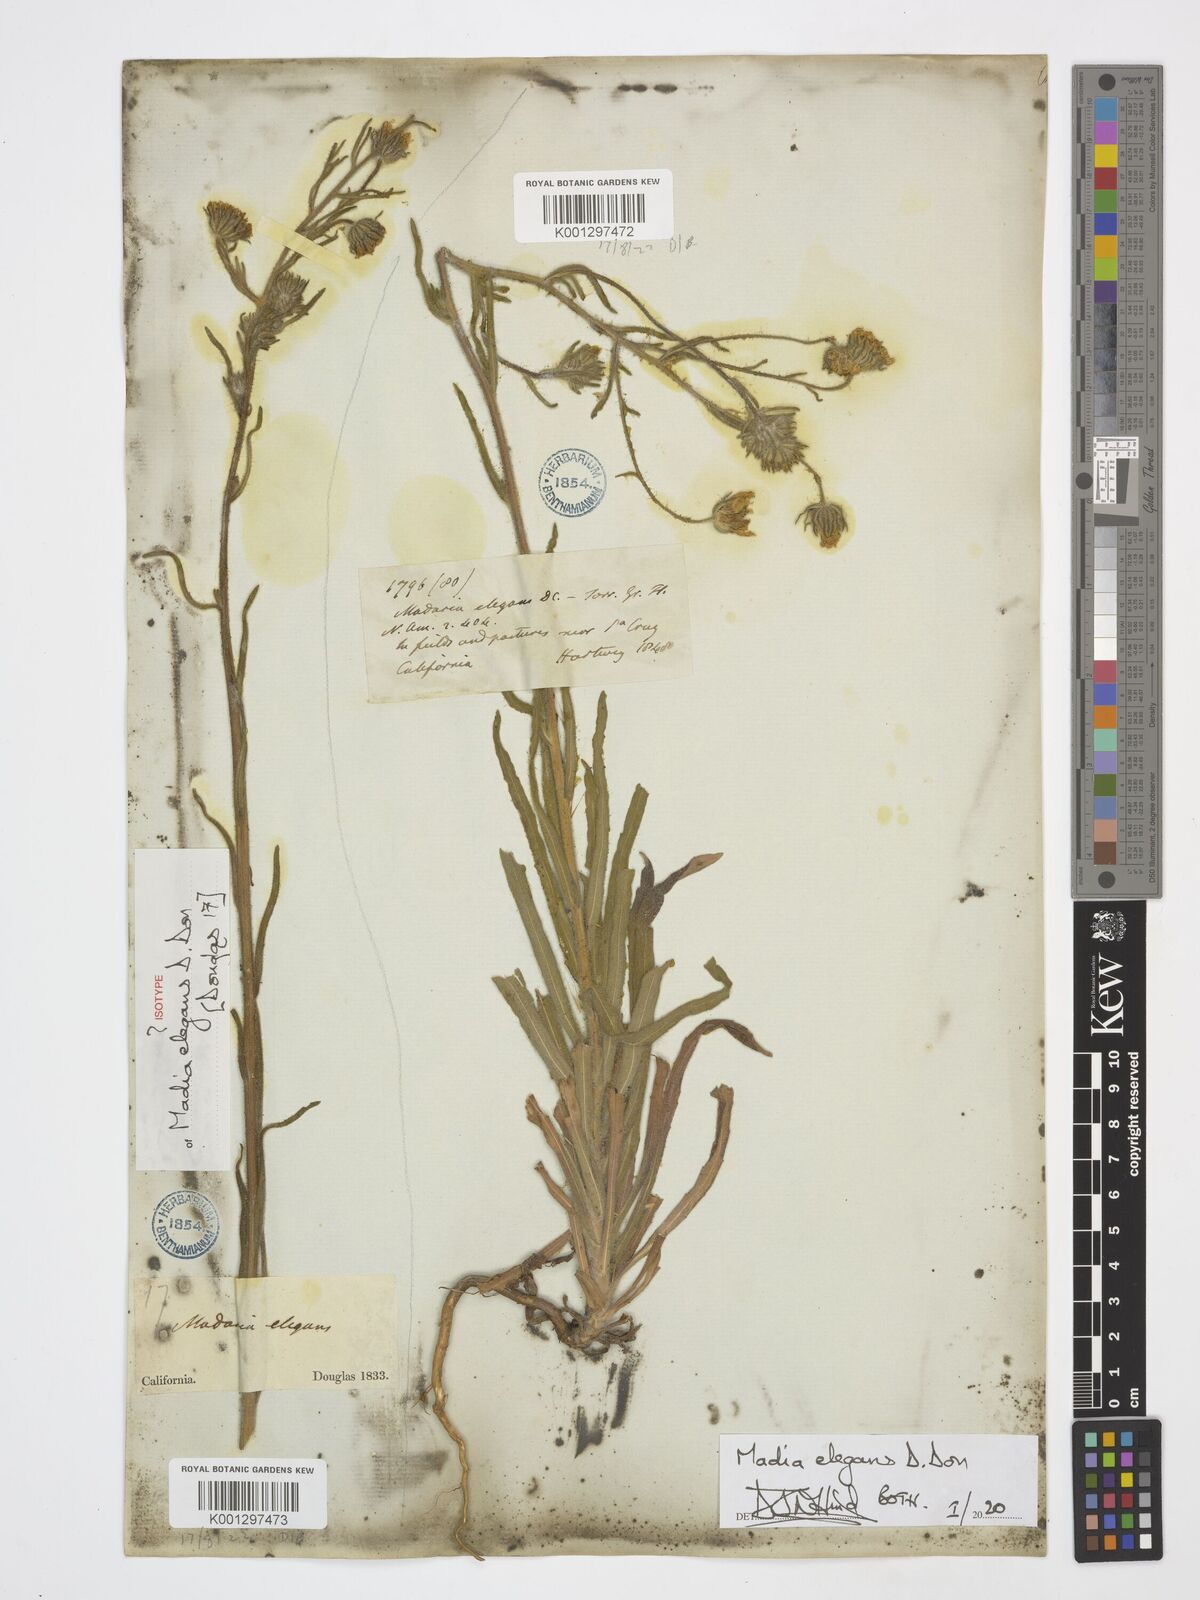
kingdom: Plantae
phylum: Tracheophyta
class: Magnoliopsida
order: Asterales
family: Asteraceae
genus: Madia
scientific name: Madia elegans
